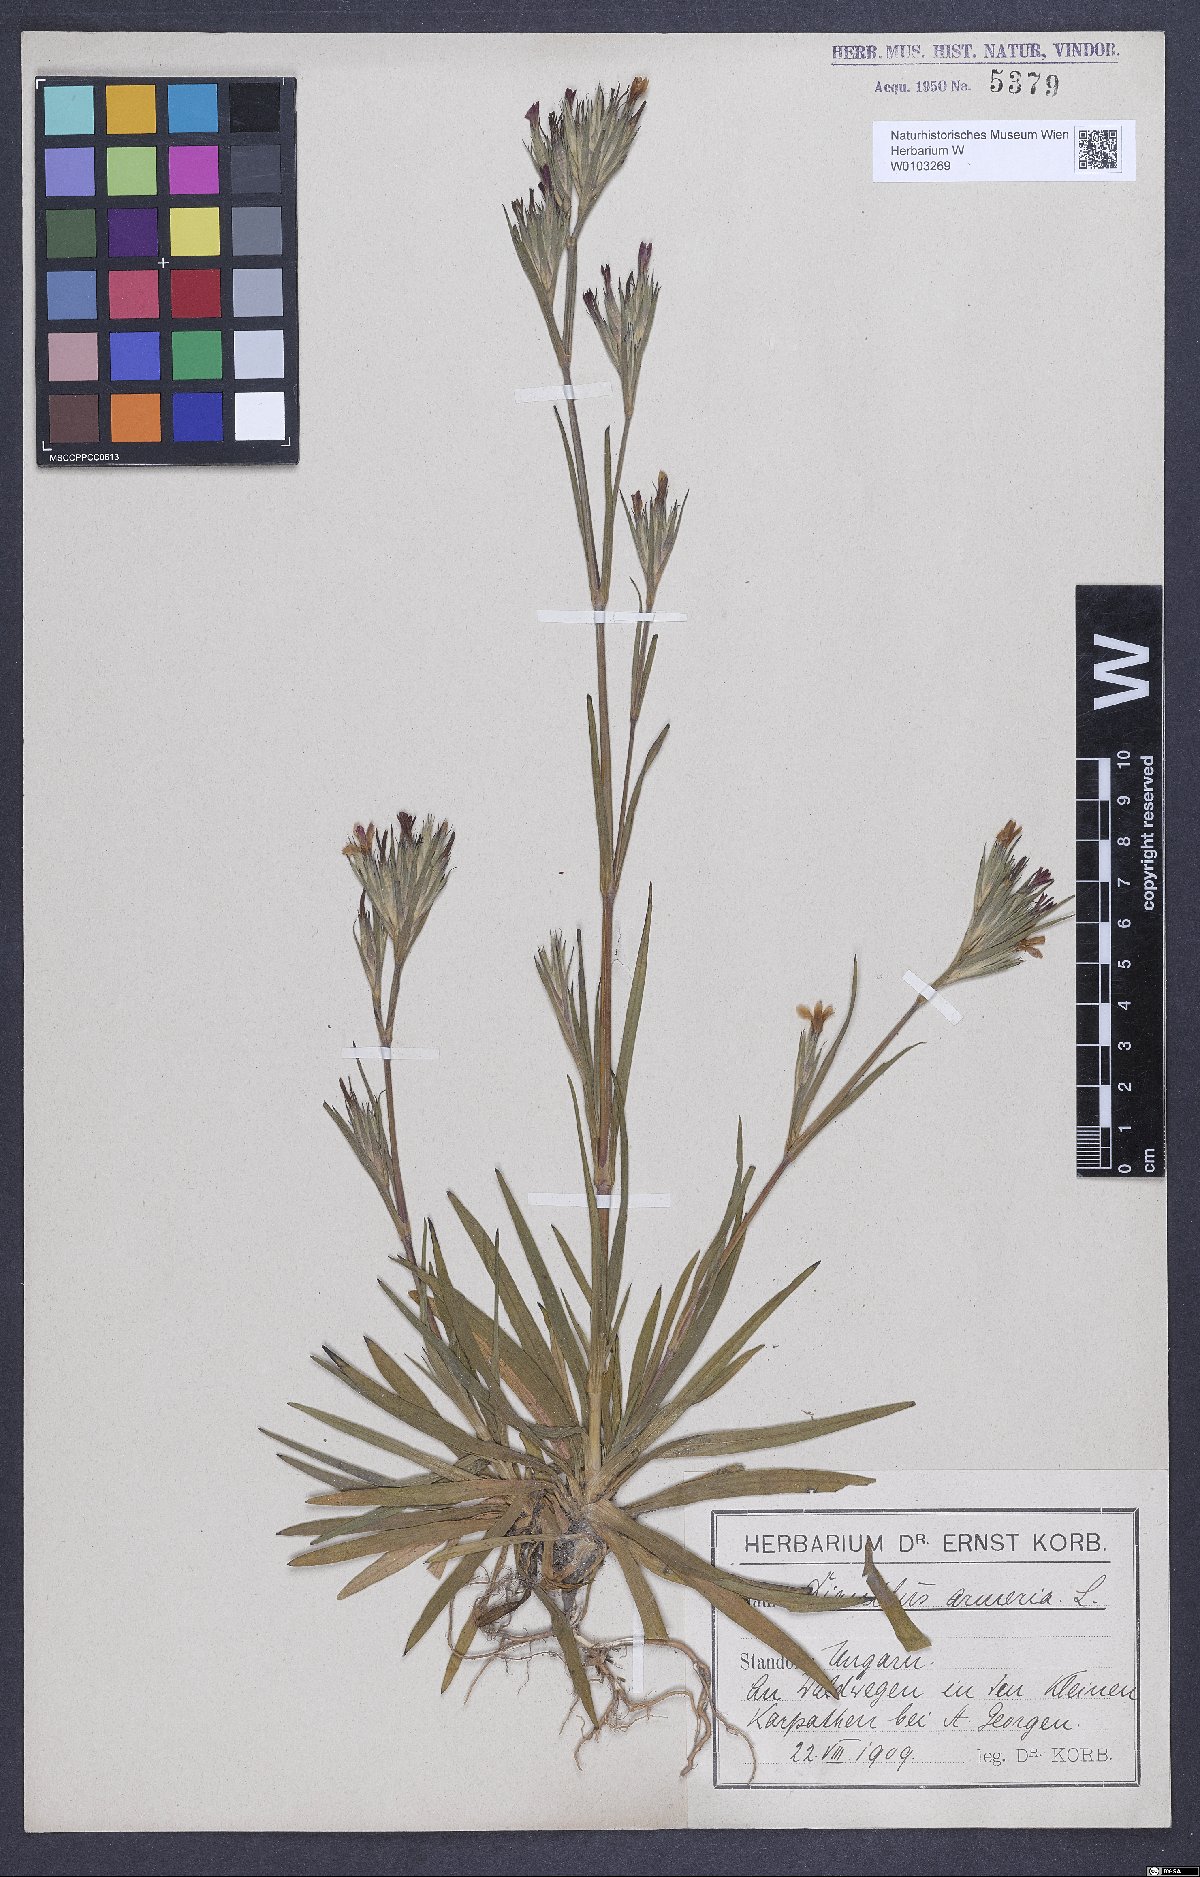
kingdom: Plantae
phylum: Tracheophyta
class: Magnoliopsida
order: Caryophyllales
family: Caryophyllaceae
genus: Dianthus
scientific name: Dianthus armeria
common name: Deptford pink
